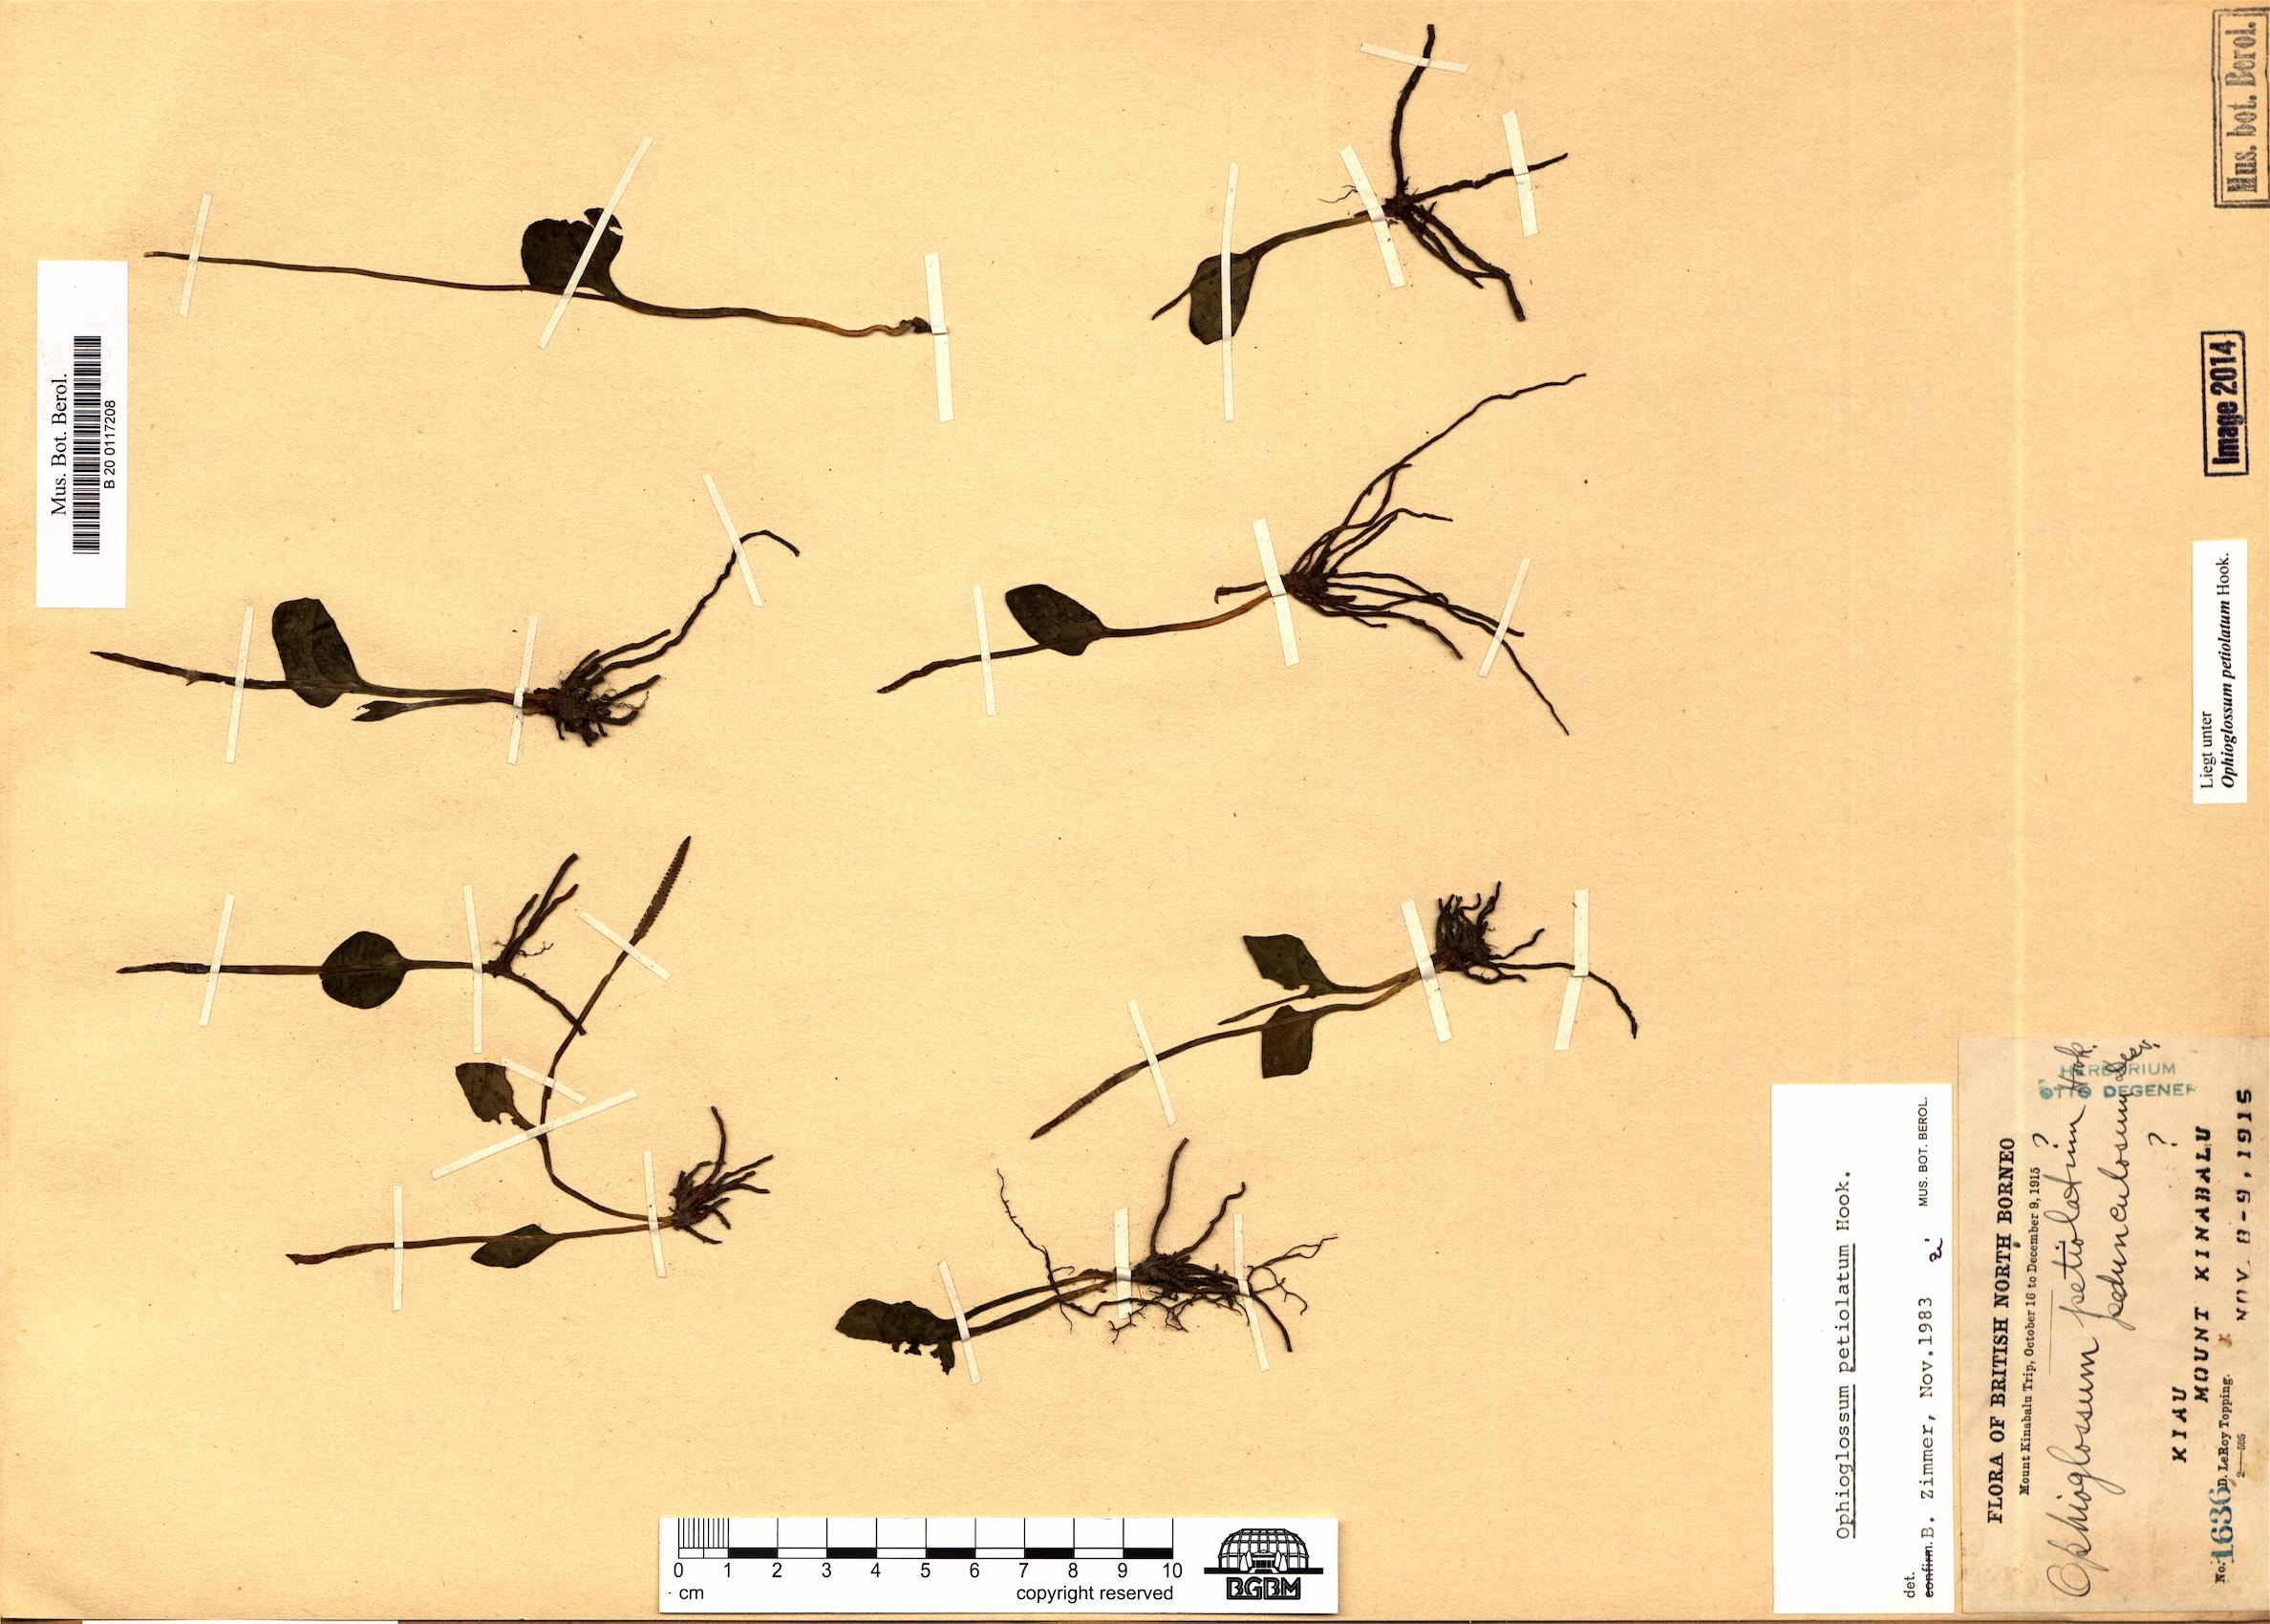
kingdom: Plantae
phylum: Tracheophyta
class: Polypodiopsida
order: Ophioglossales
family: Ophioglossaceae
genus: Ophioglossum
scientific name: Ophioglossum petiolatum
